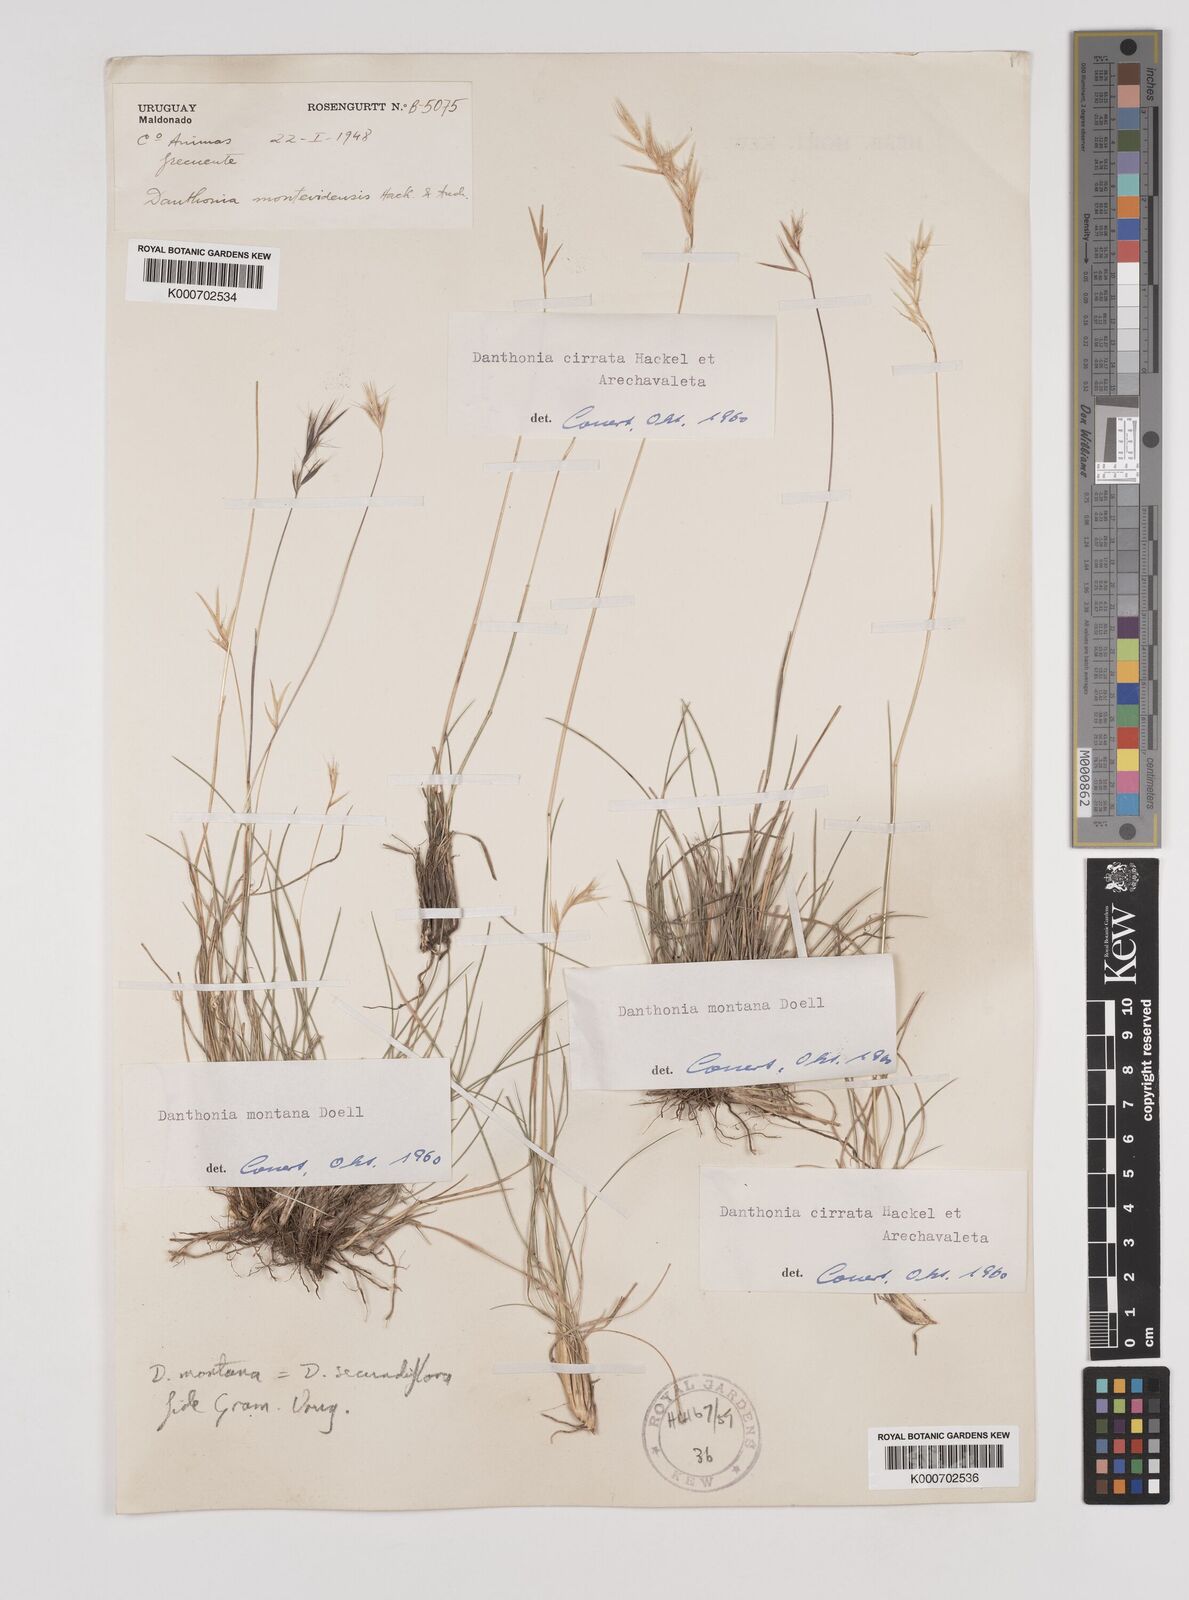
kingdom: Plantae
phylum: Tracheophyta
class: Liliopsida
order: Poales
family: Poaceae
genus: Danthonia
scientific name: Danthonia cirrata
